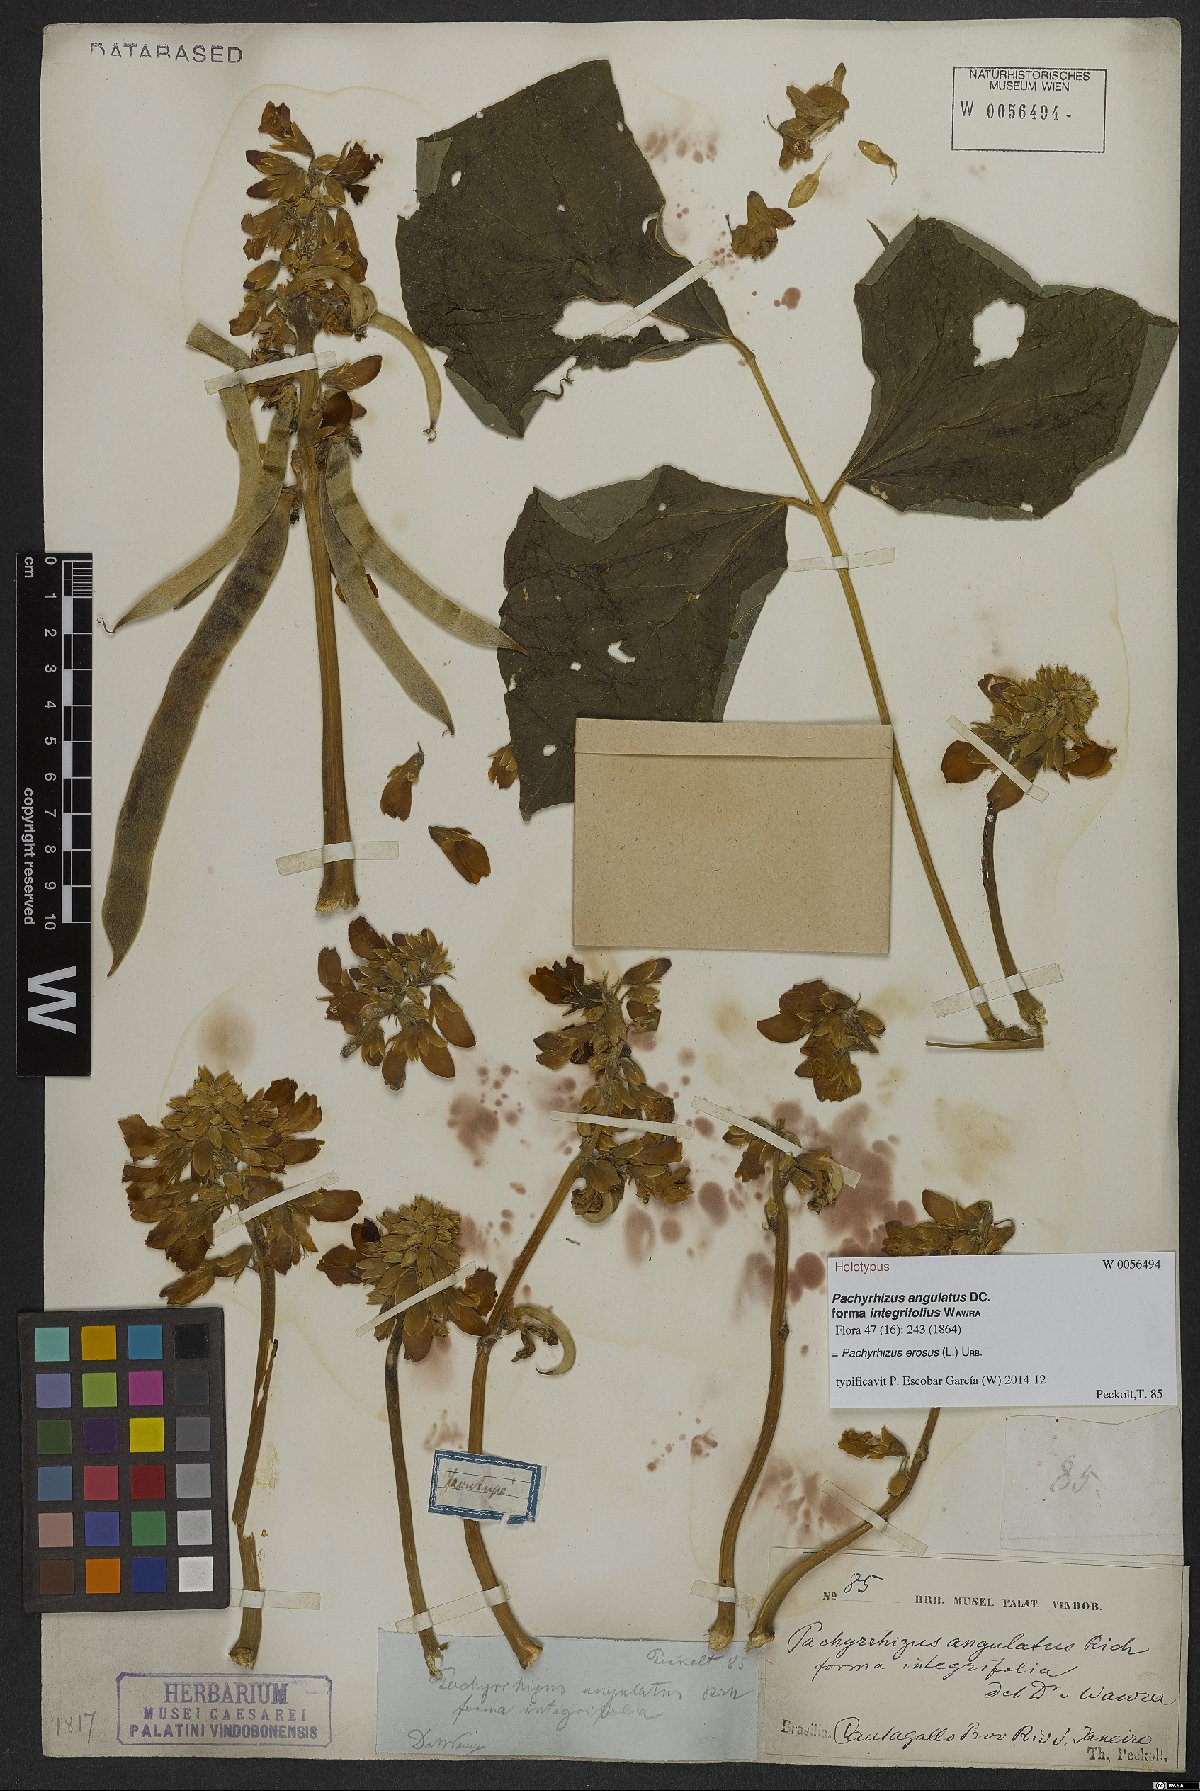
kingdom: Plantae
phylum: Tracheophyta
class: Magnoliopsida
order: Fabales
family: Fabaceae
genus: Pachyrhizus
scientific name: Pachyrhizus erosus
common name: Yam bean
